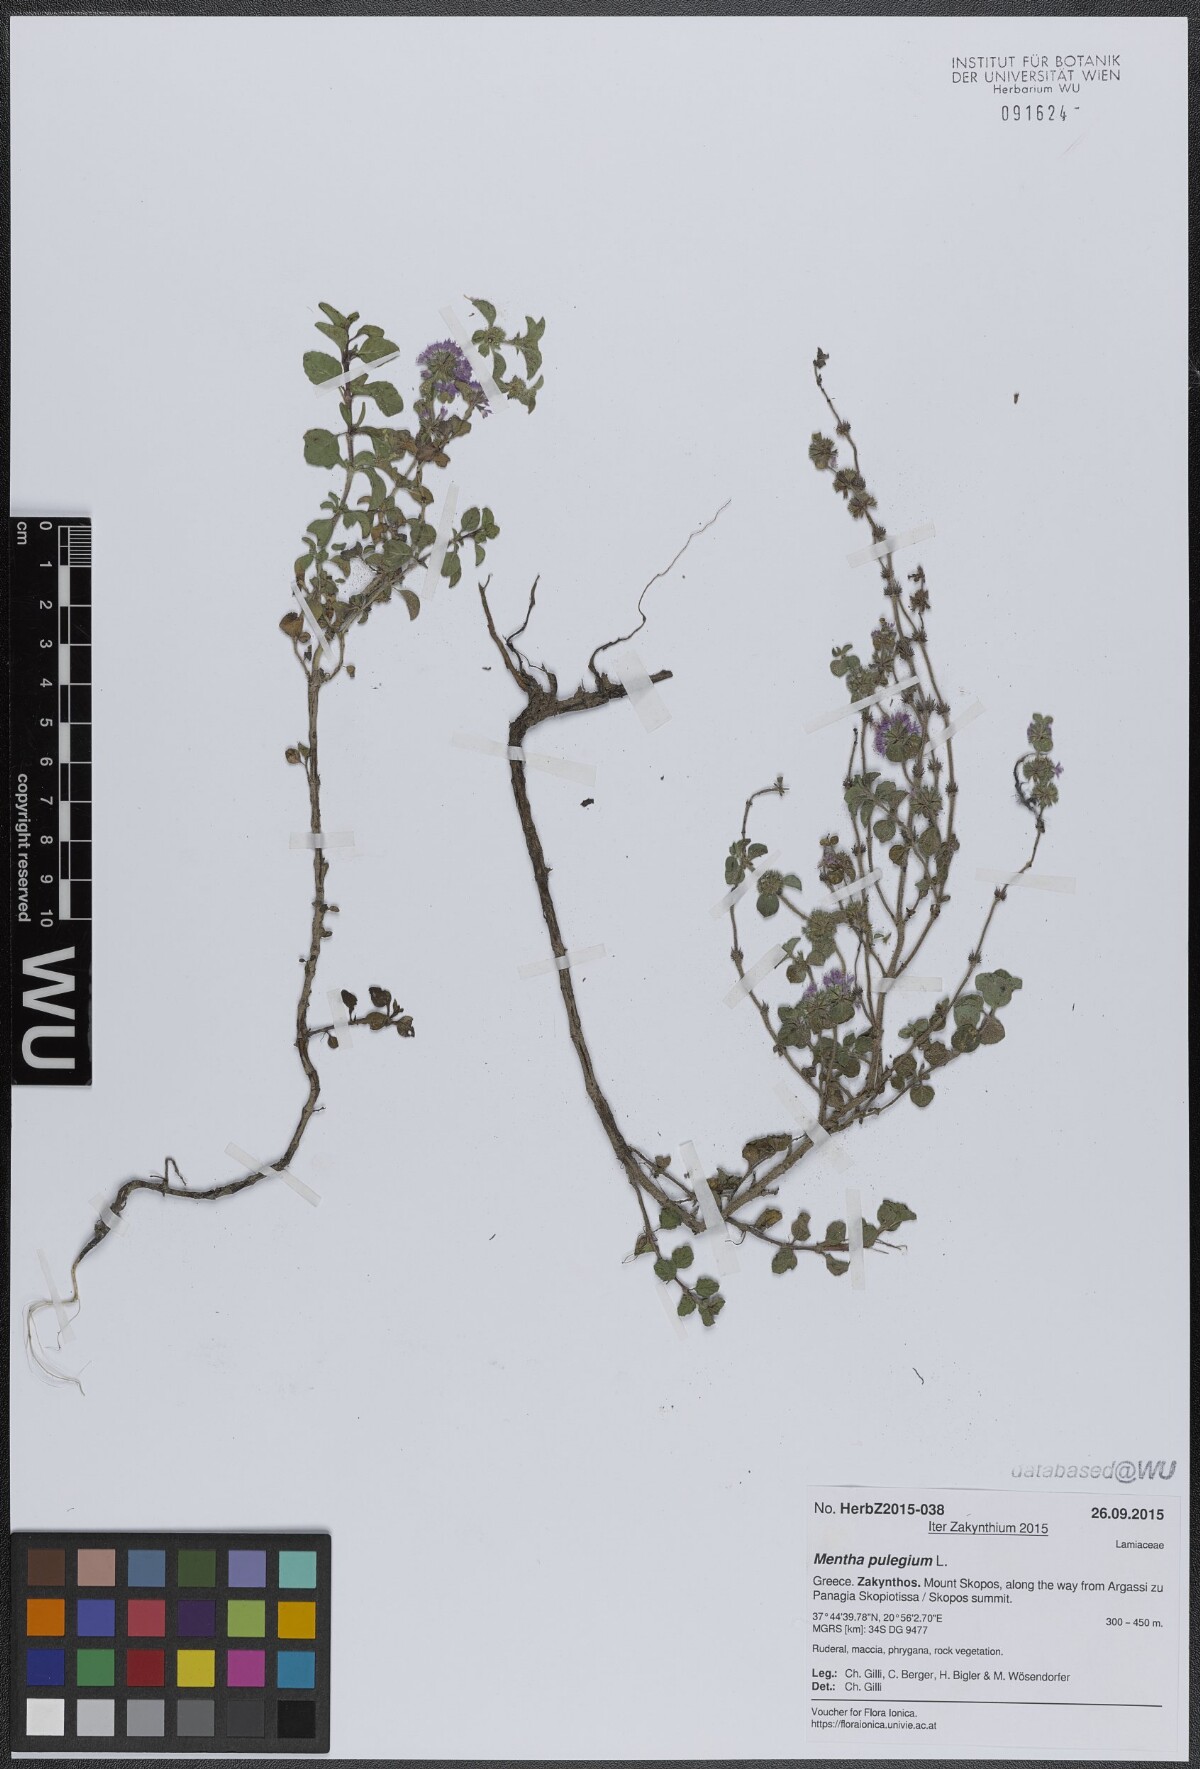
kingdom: Plantae
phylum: Tracheophyta
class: Magnoliopsida
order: Lamiales
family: Lamiaceae
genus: Mentha
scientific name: Mentha pulegium
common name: Pennyroyal
